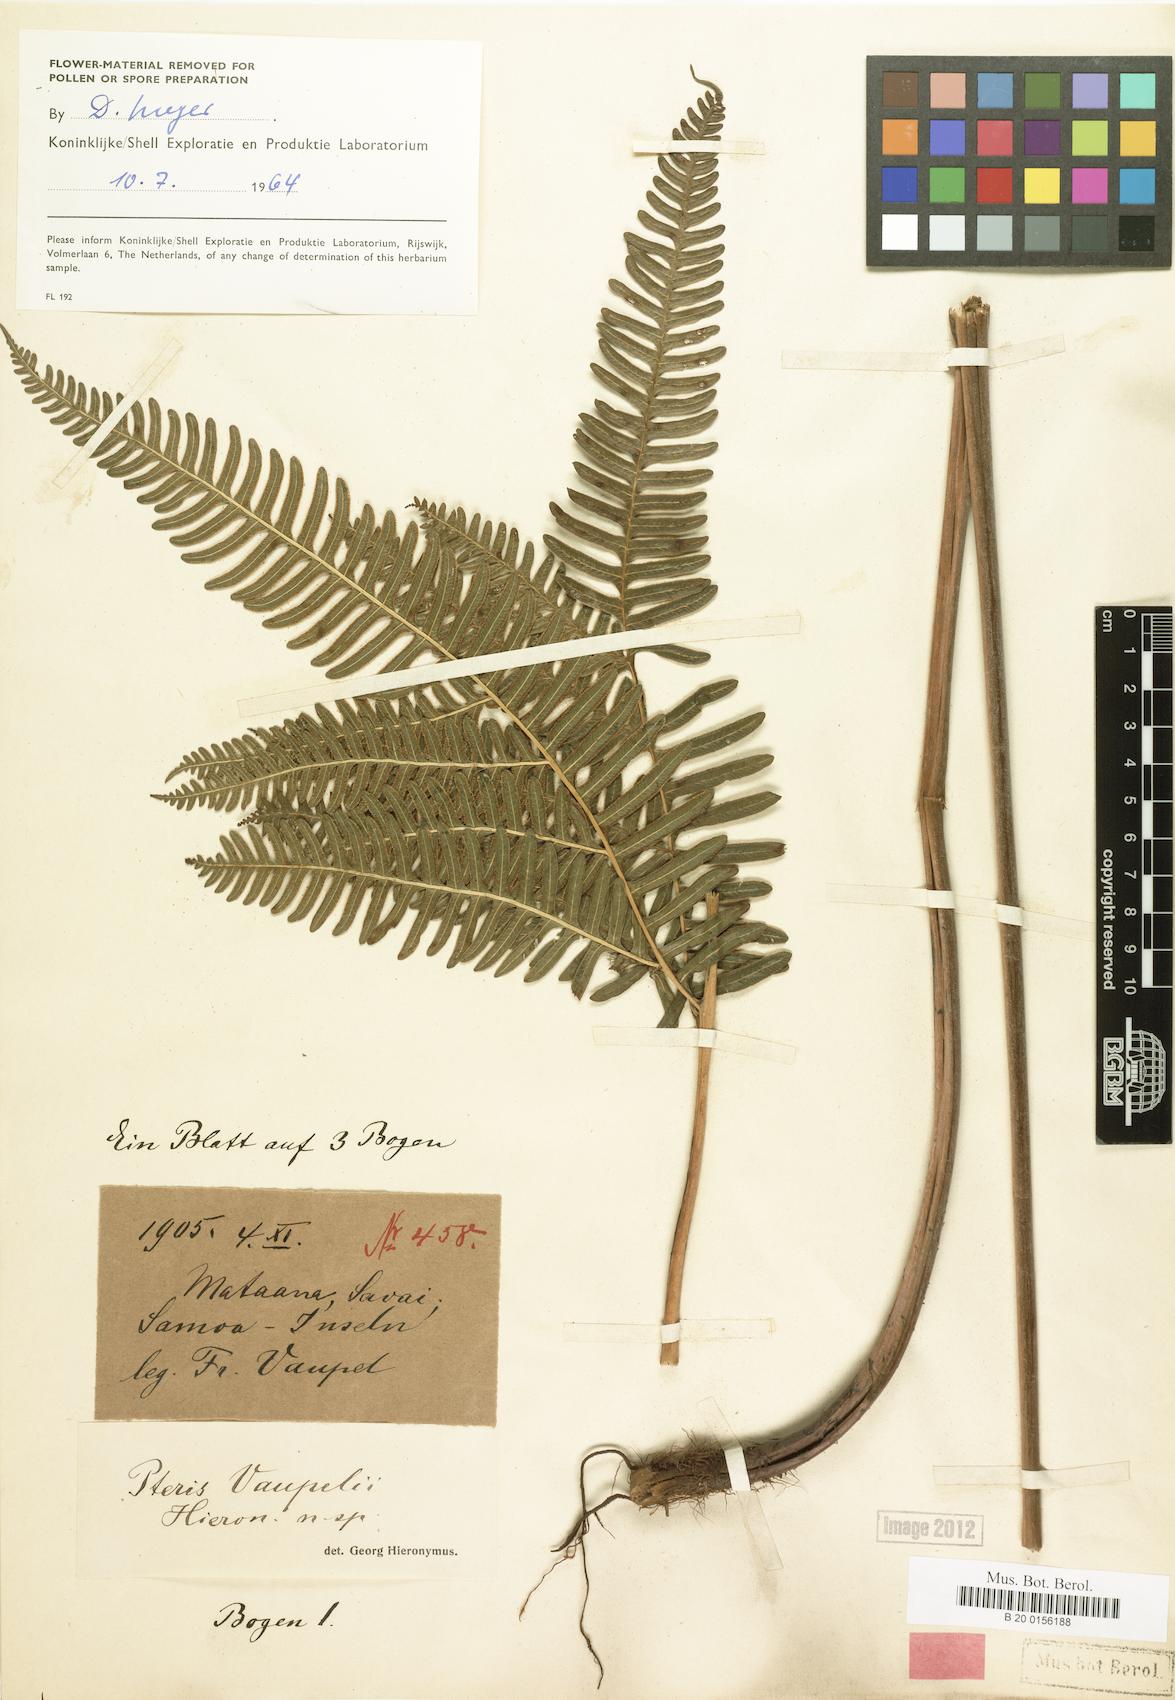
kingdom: Plantae
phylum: Tracheophyta
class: Polypodiopsida
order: Polypodiales
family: Pteridaceae
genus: Pteris
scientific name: Pteris vaupelii
